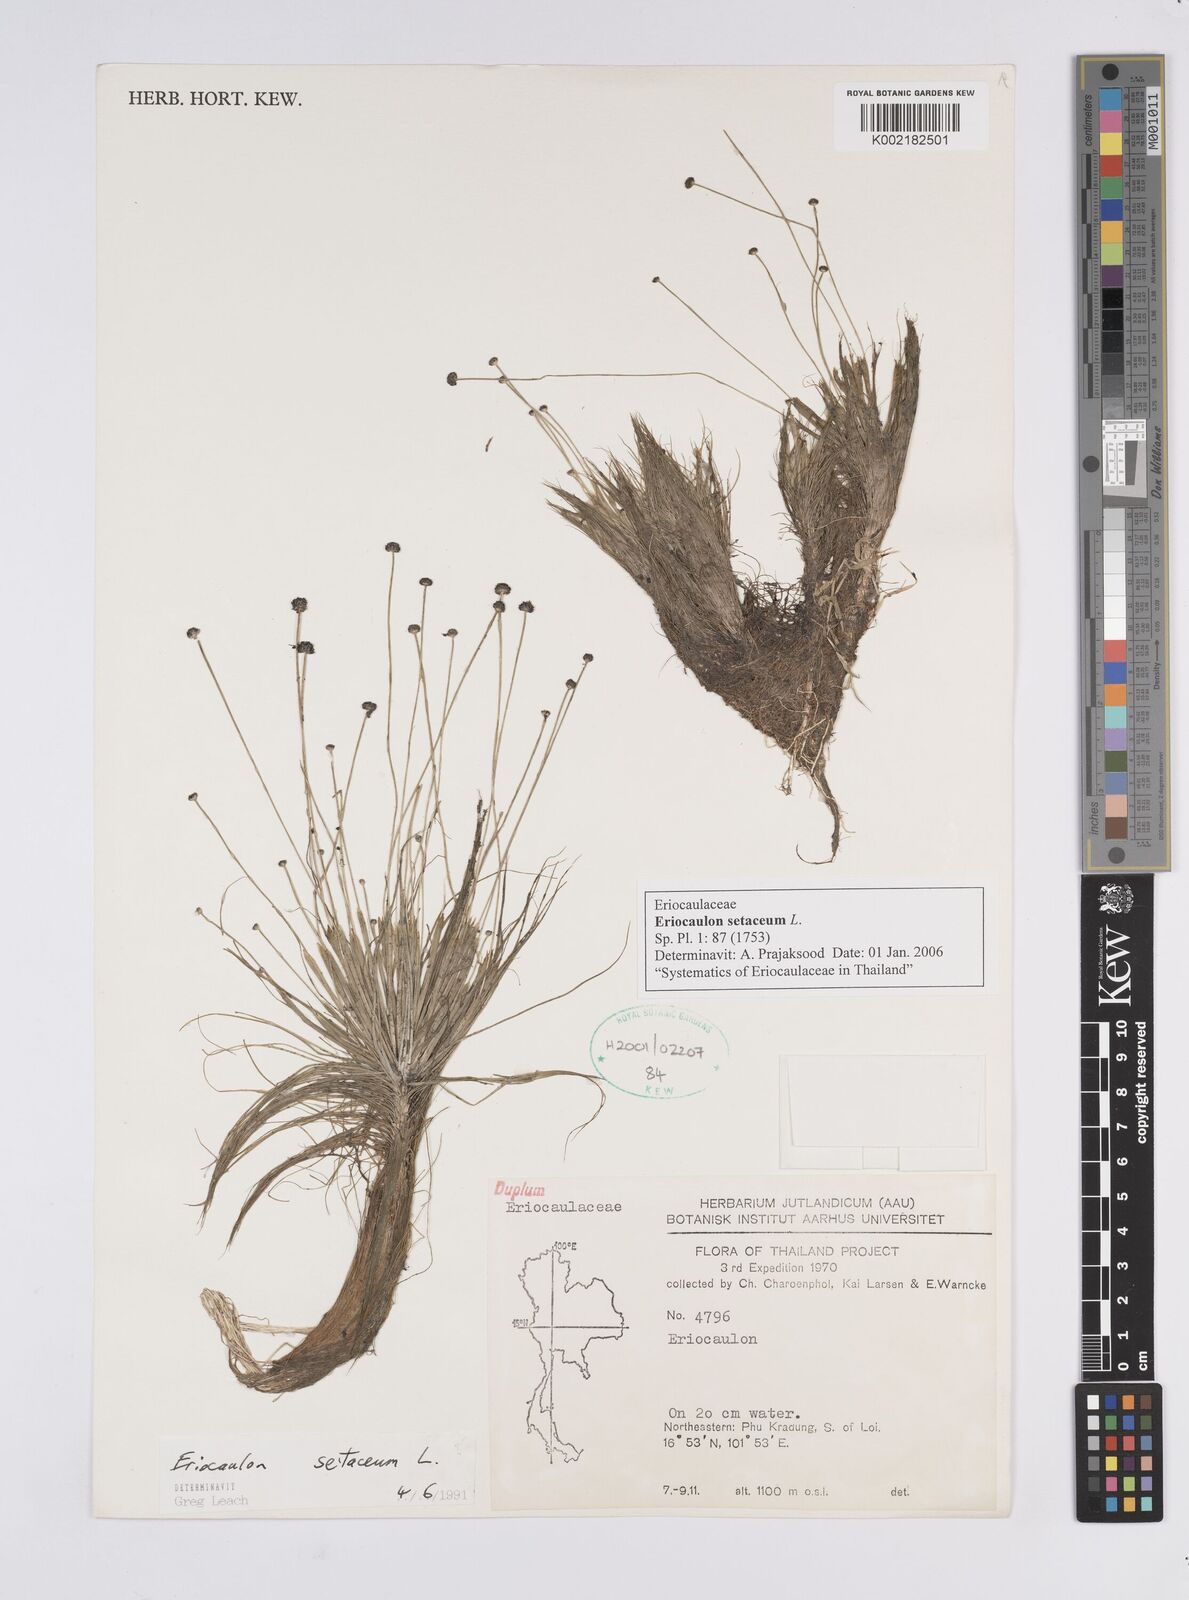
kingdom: Plantae
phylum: Tracheophyta
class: Liliopsida
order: Poales
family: Eriocaulaceae
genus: Eriocaulon
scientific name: Eriocaulon setaceum
